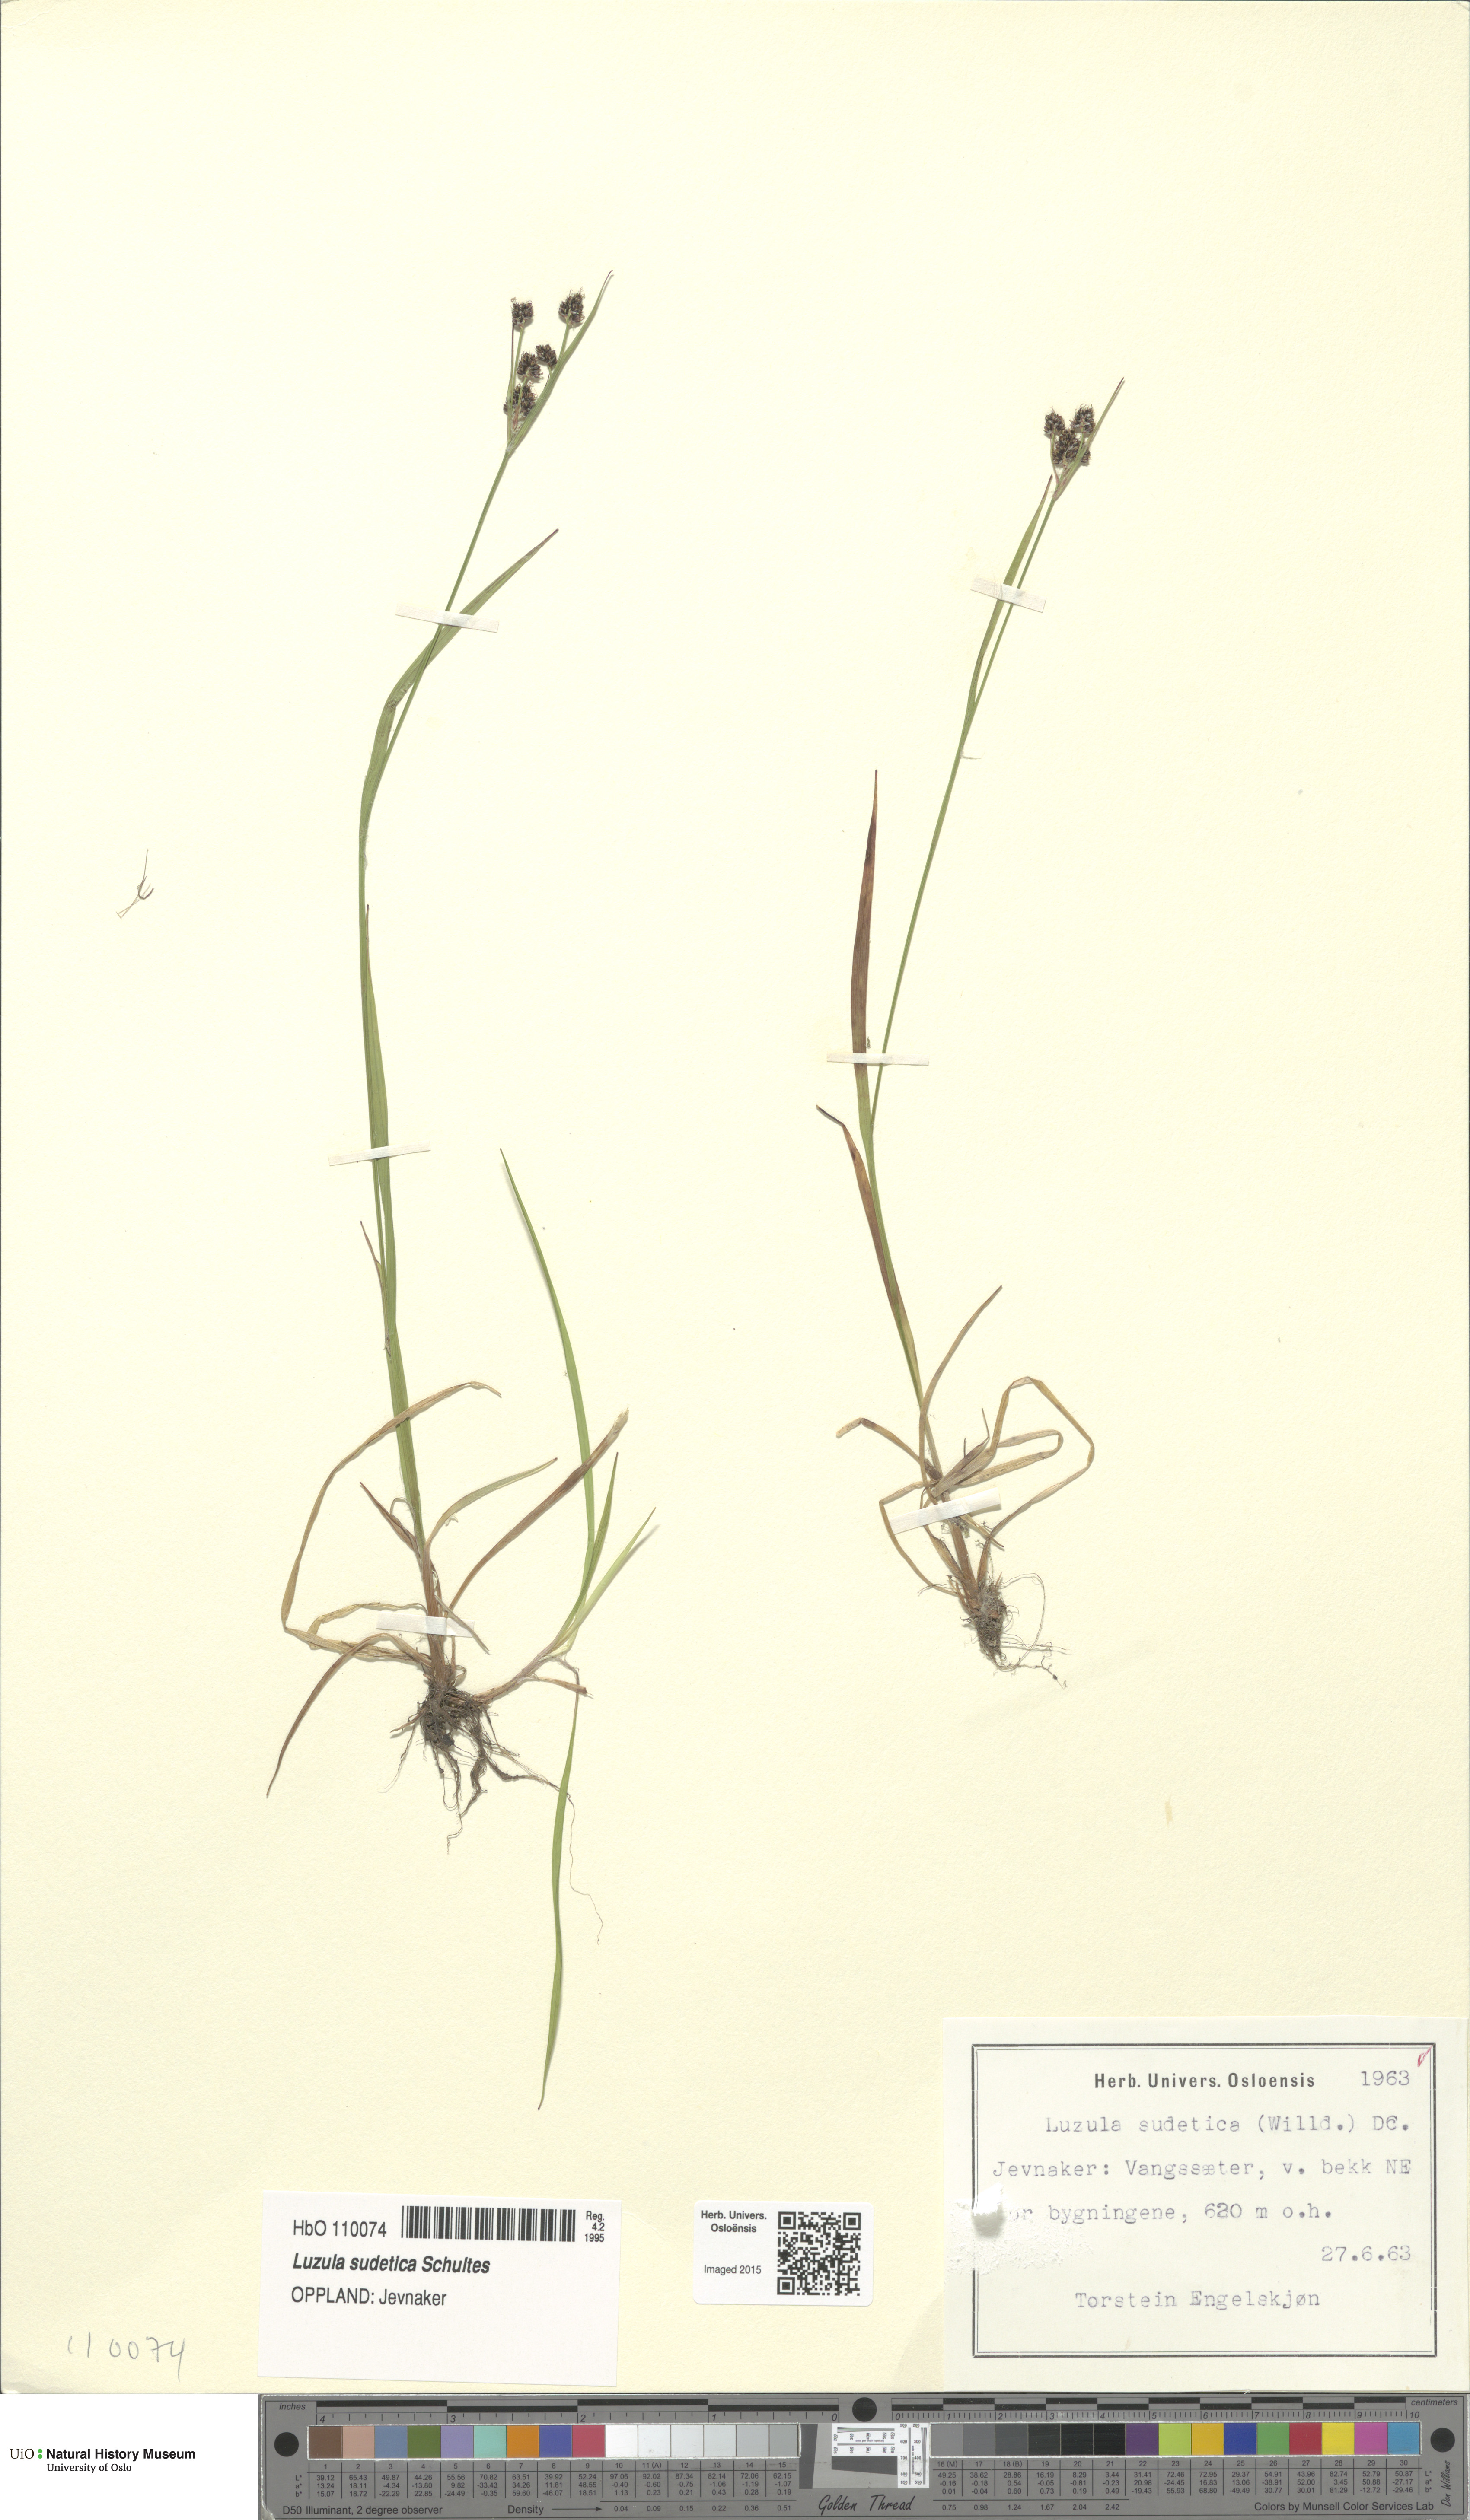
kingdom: Plantae
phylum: Tracheophyta
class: Liliopsida
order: Poales
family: Juncaceae
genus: Luzula
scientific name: Luzula sudetica
